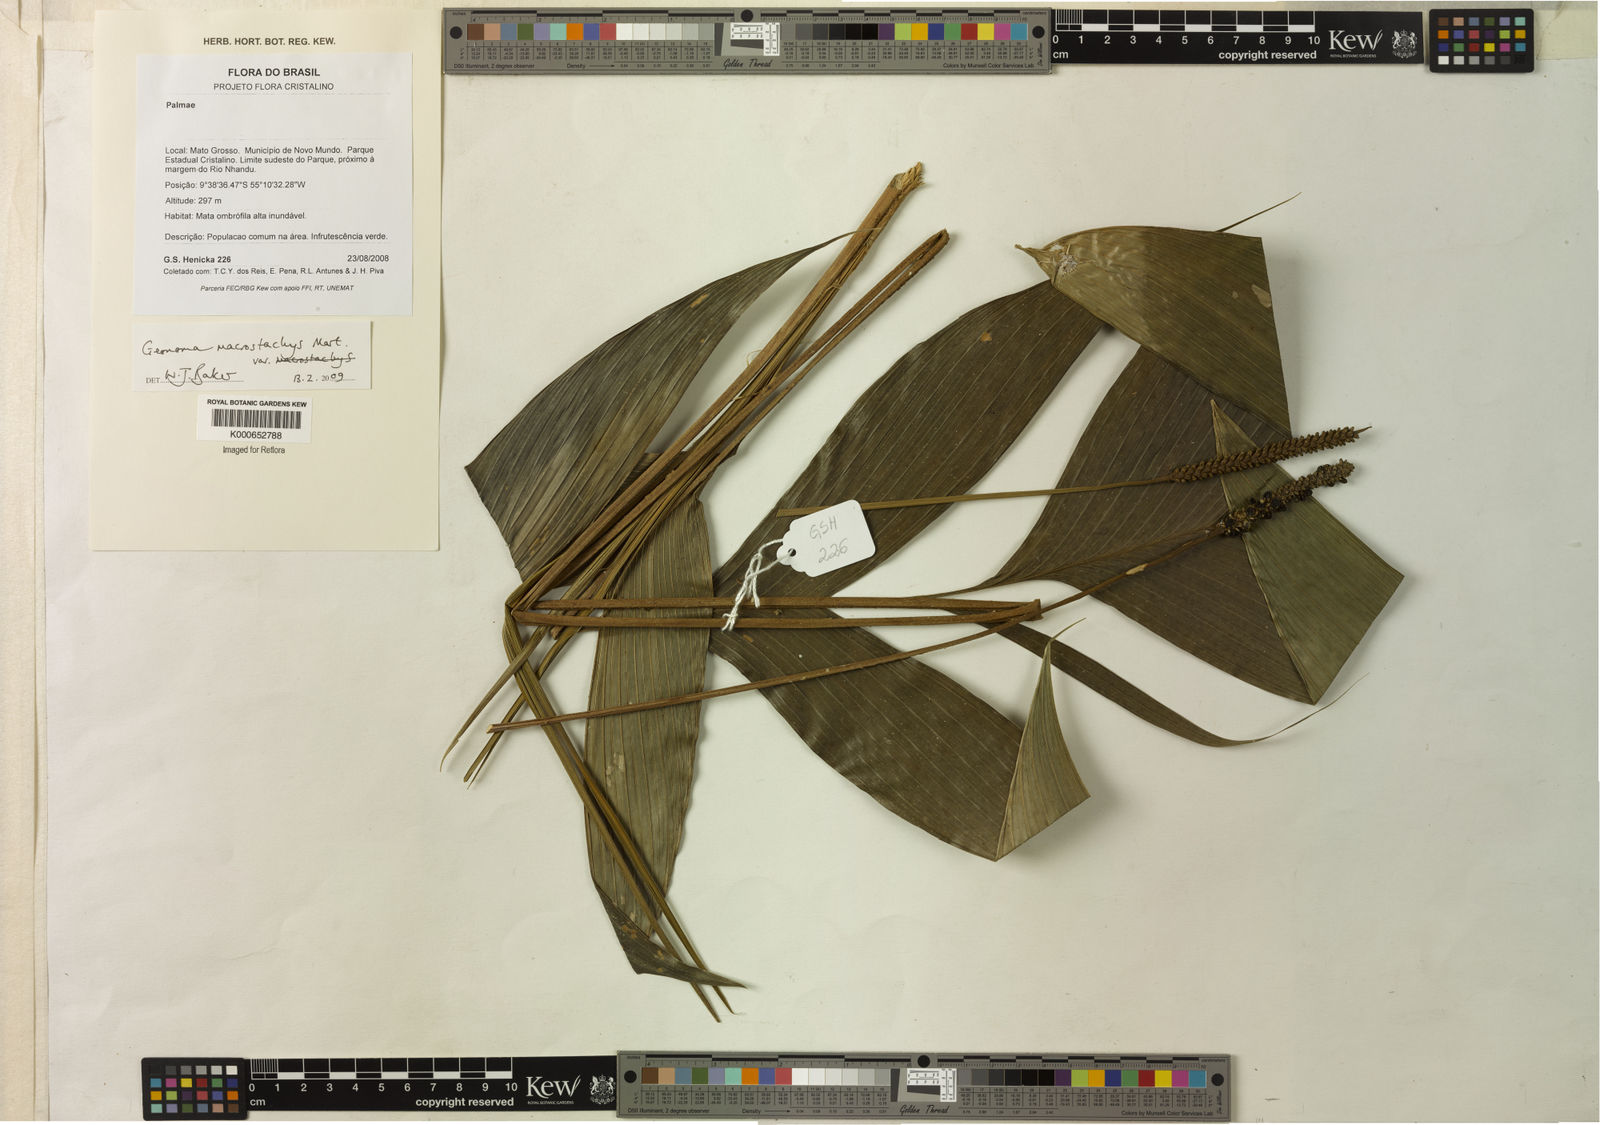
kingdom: Plantae
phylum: Tracheophyta
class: Liliopsida
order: Arecales
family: Arecaceae
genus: Geonoma
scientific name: Geonoma macrostachys
